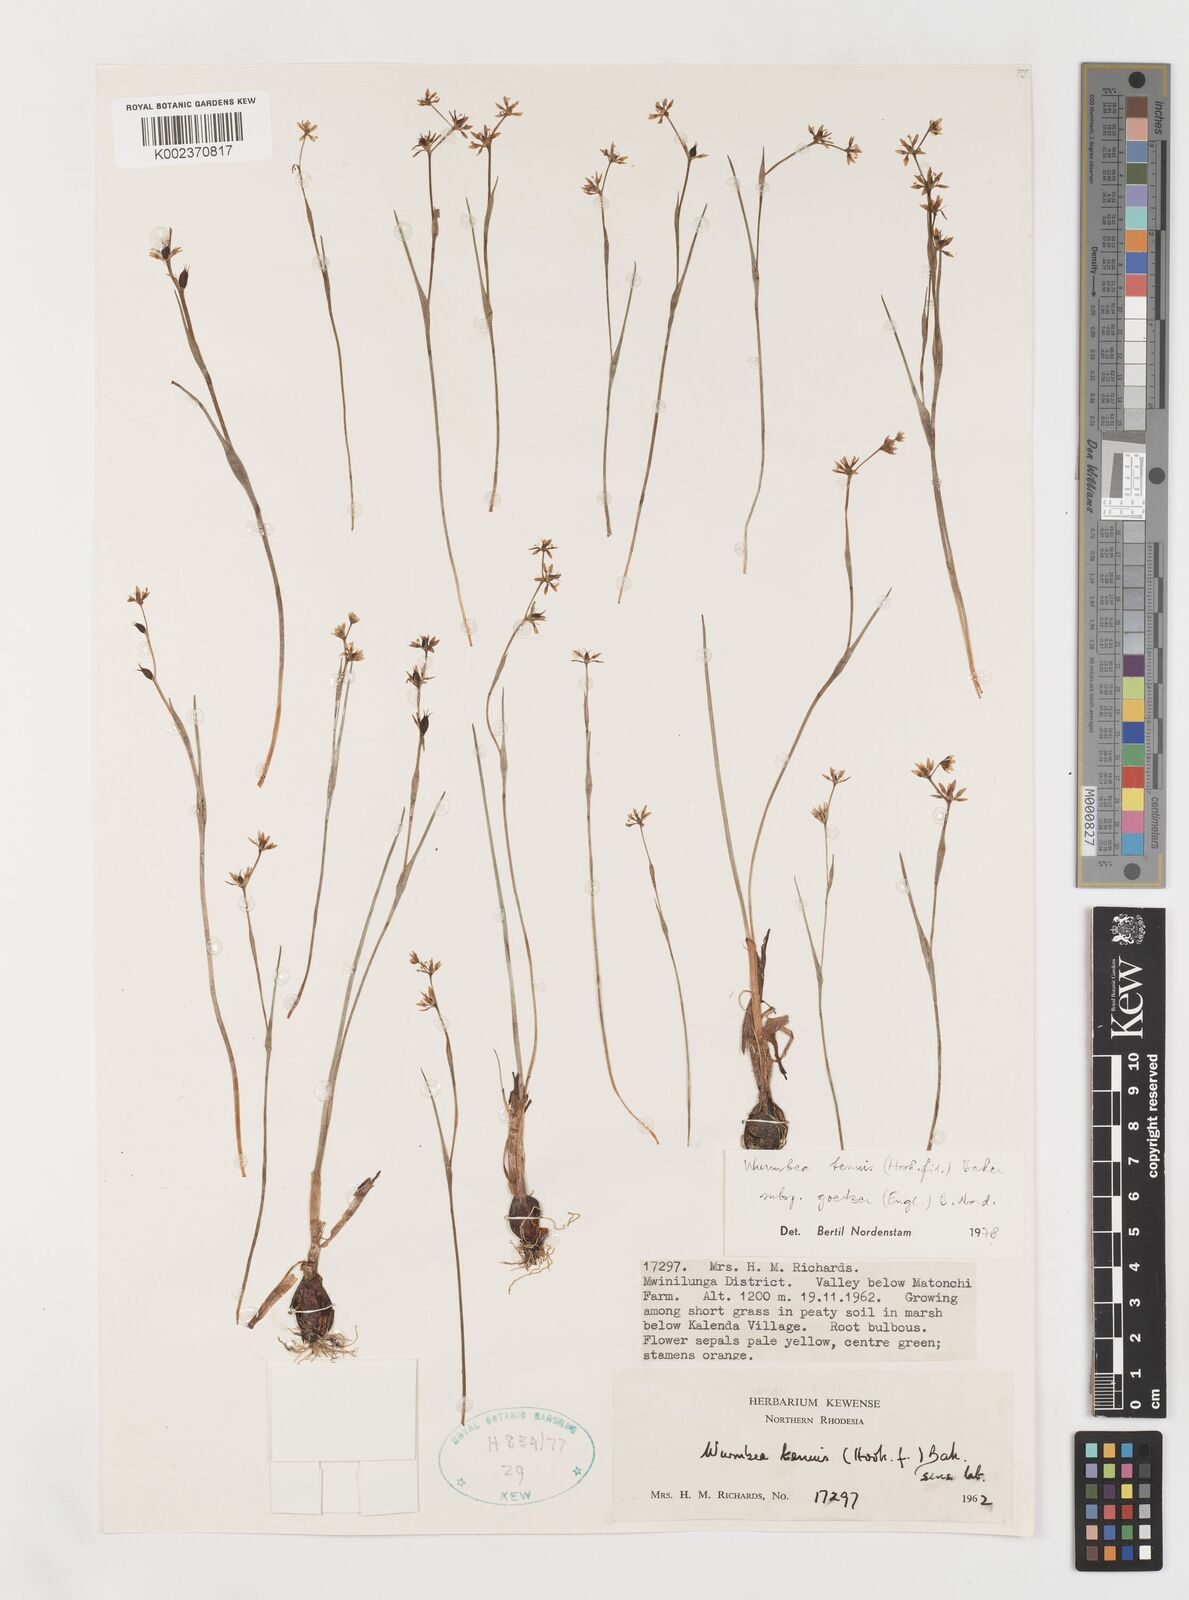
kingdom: Plantae
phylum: Tracheophyta
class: Liliopsida
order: Liliales
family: Colchicaceae
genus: Wurmbea
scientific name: Wurmbea tenuis
